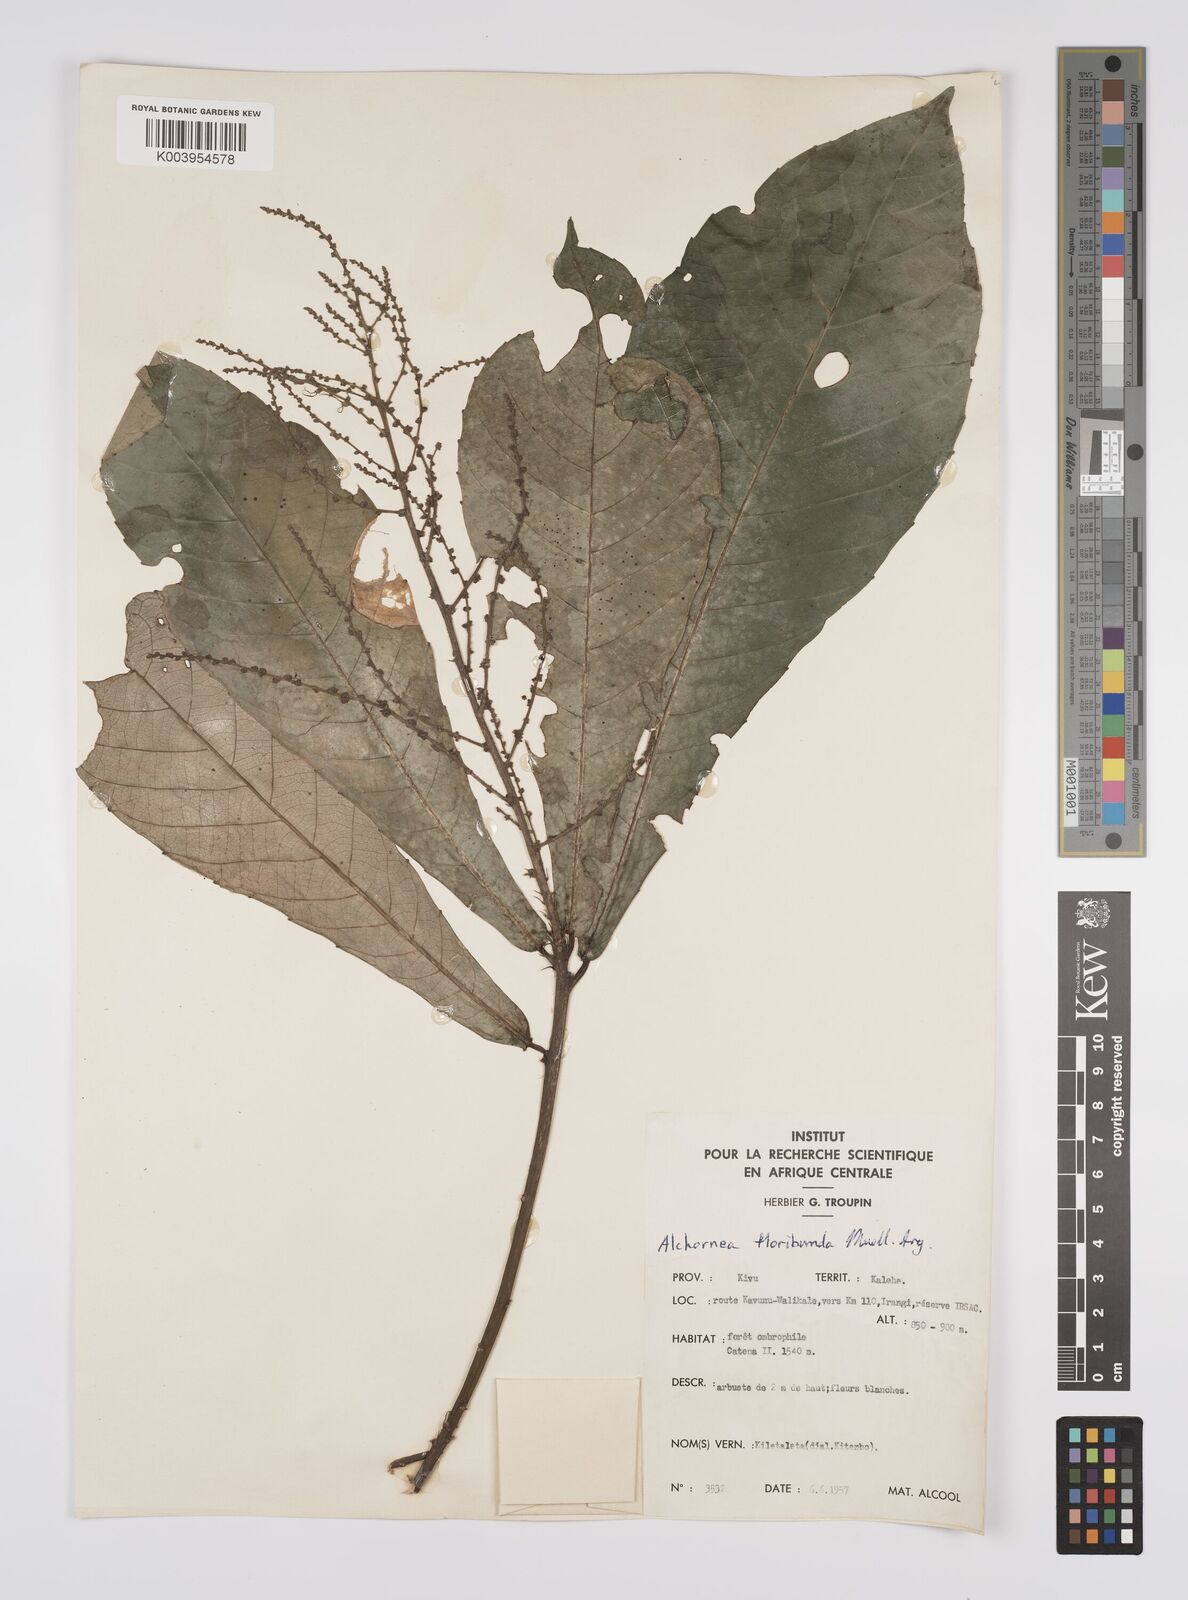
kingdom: Plantae
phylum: Tracheophyta
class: Magnoliopsida
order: Malpighiales
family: Euphorbiaceae
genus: Alchornea
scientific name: Alchornea floribunda
